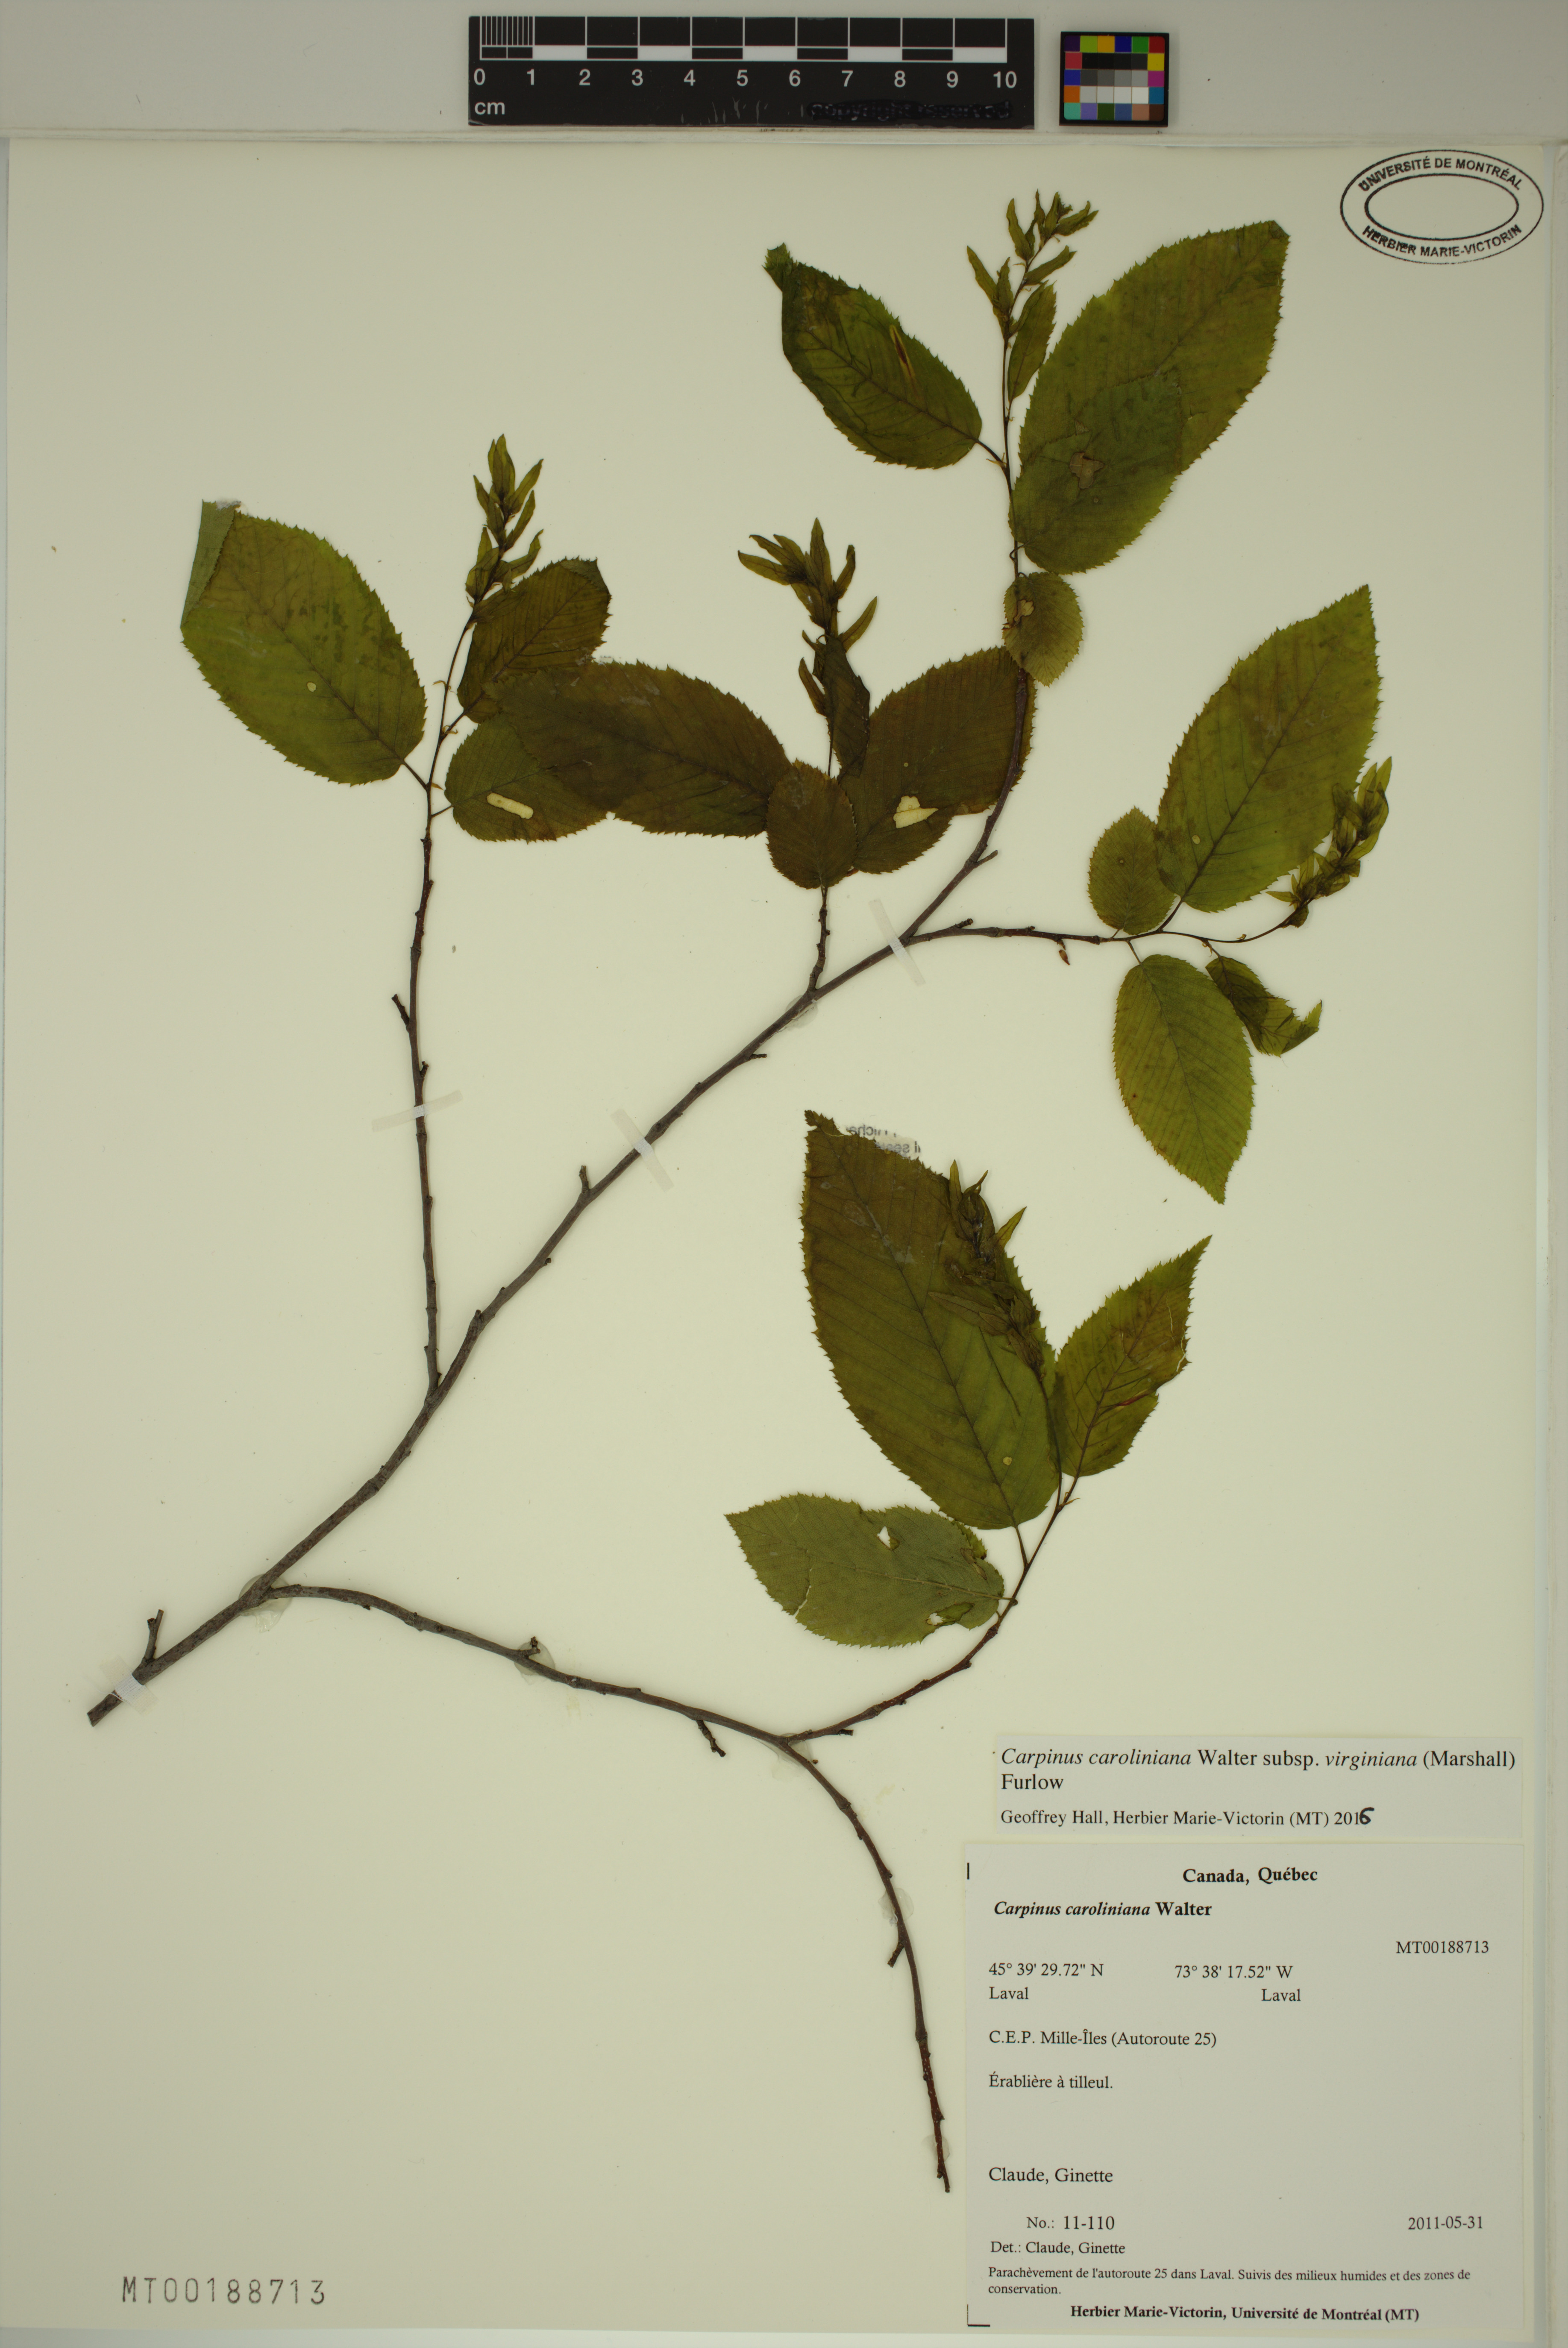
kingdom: Plantae
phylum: Tracheophyta
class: Magnoliopsida
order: Fagales
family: Betulaceae
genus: Carpinus
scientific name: Carpinus caroliniana
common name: American hornbeam
